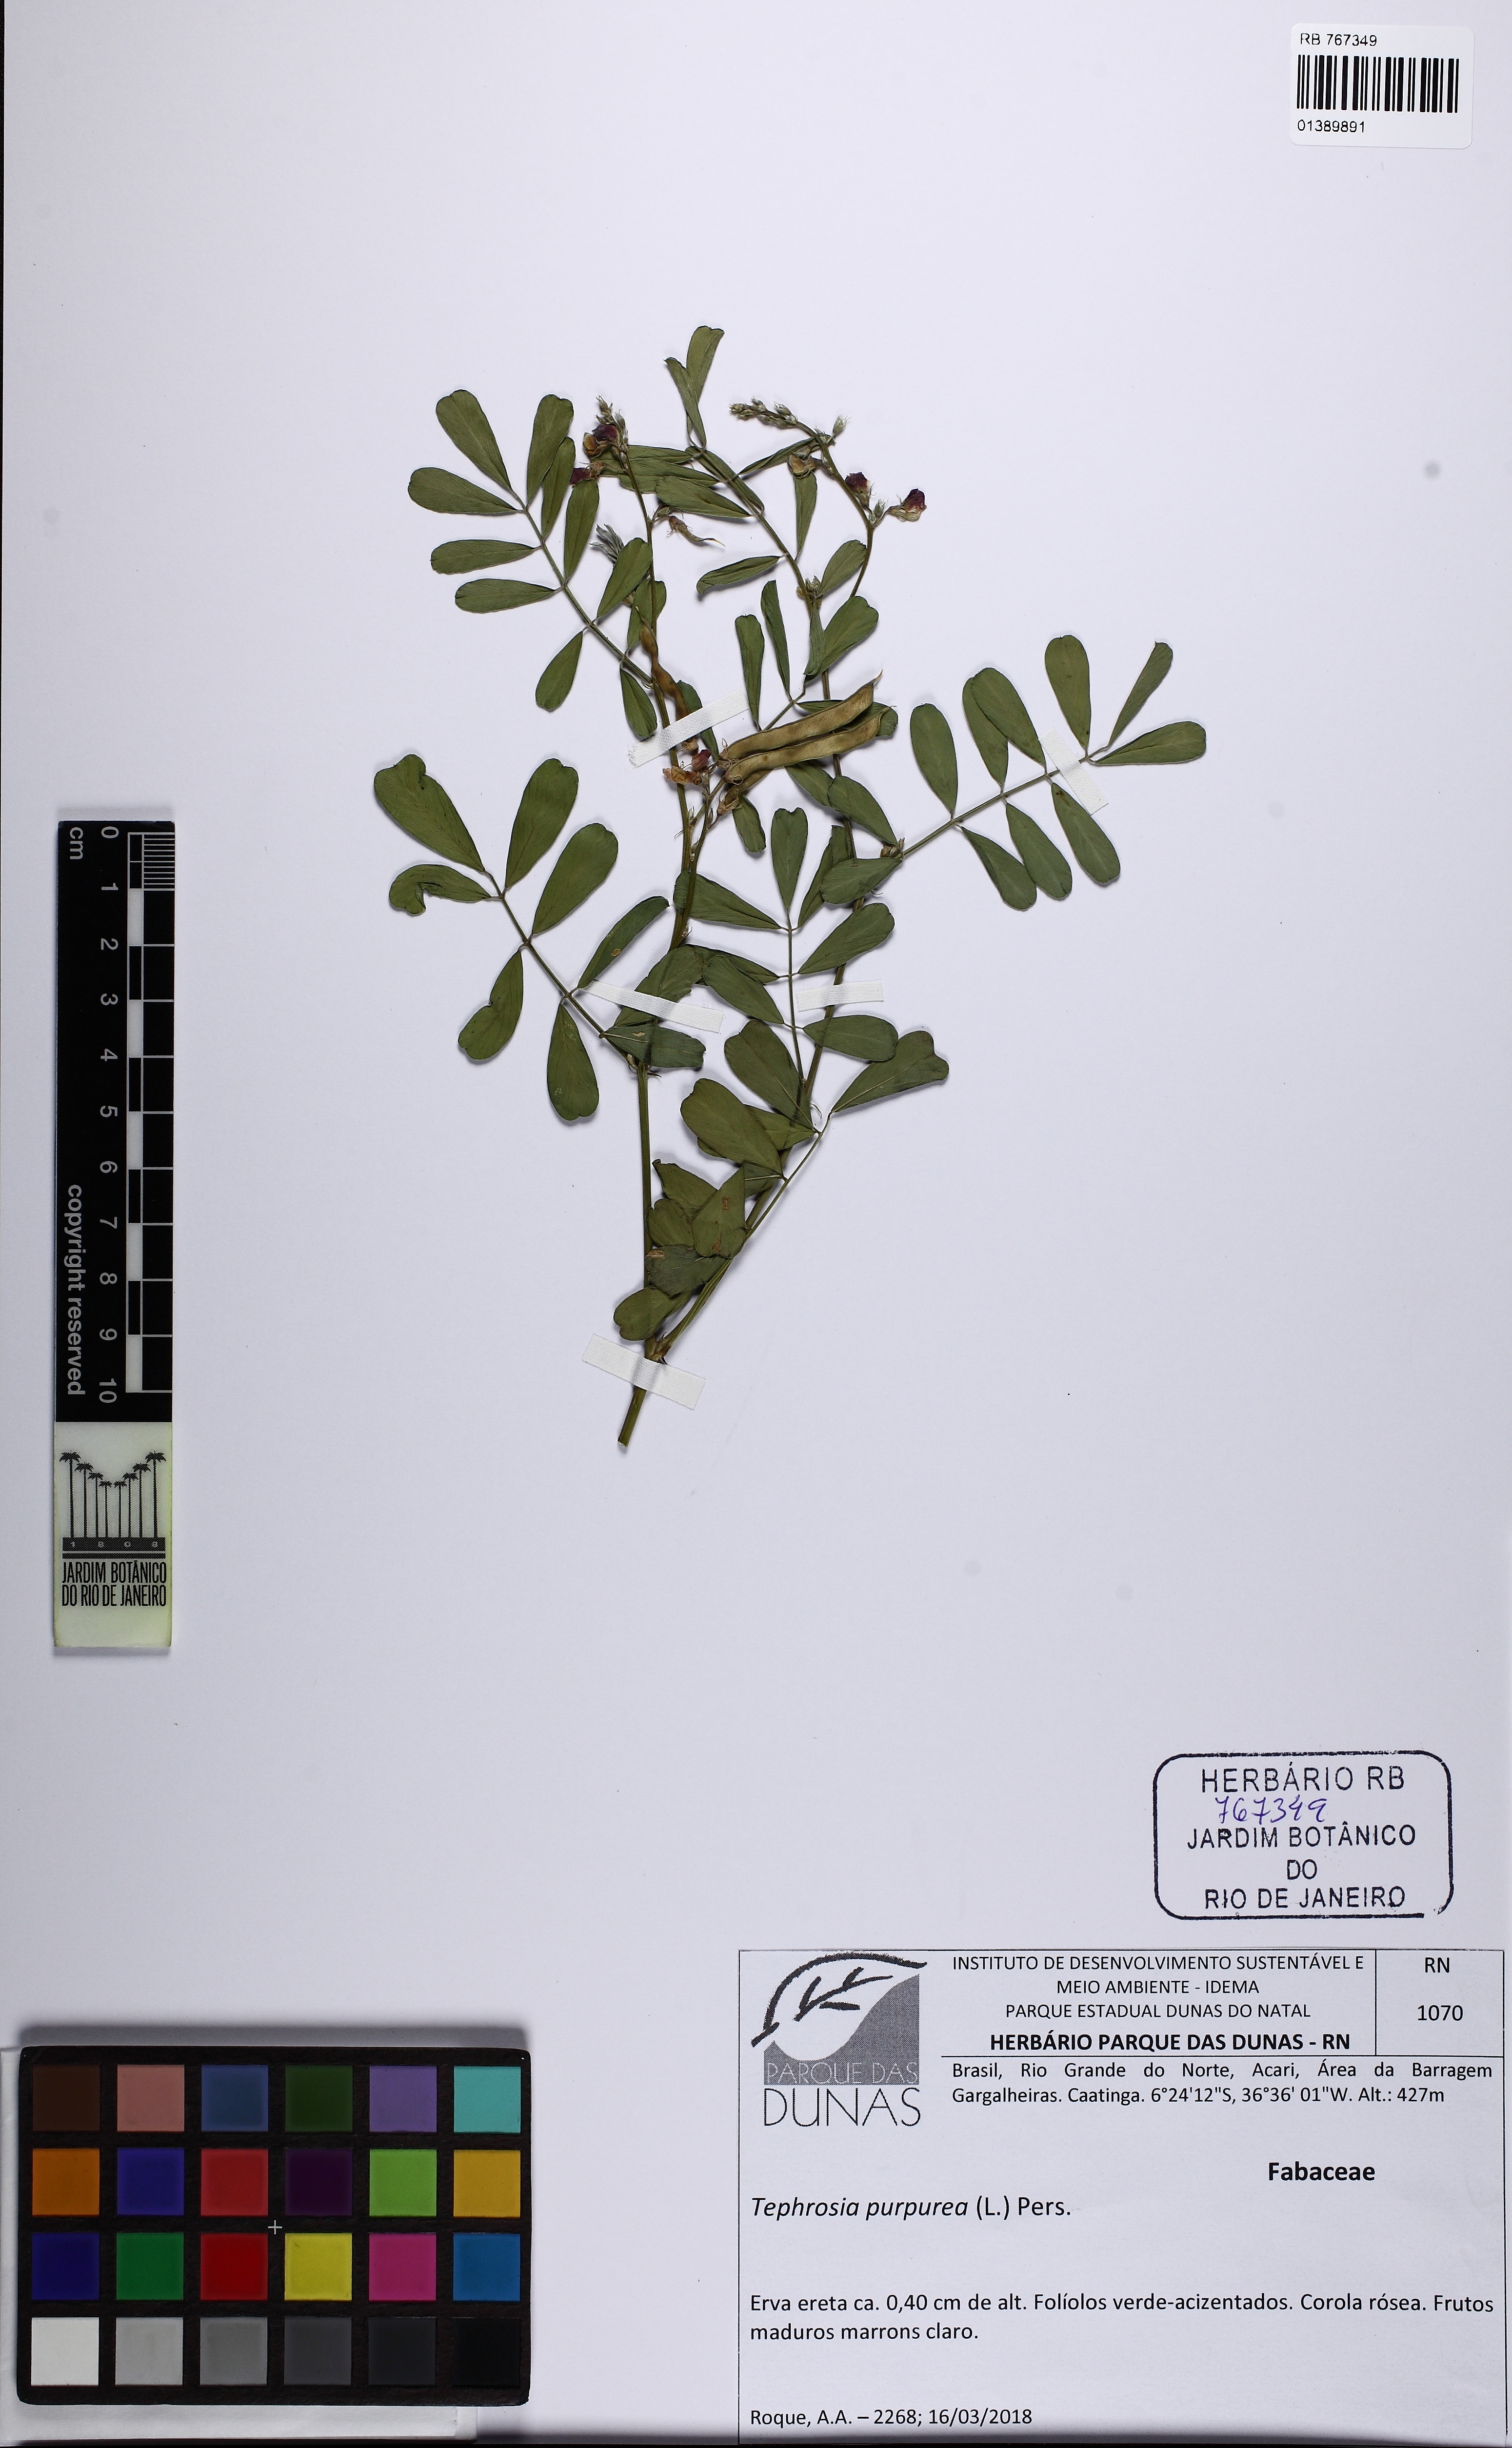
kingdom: Plantae
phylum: Tracheophyta
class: Magnoliopsida
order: Fabales
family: Fabaceae
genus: Tephrosia
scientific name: Tephrosia purpurea
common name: Fishpoison
